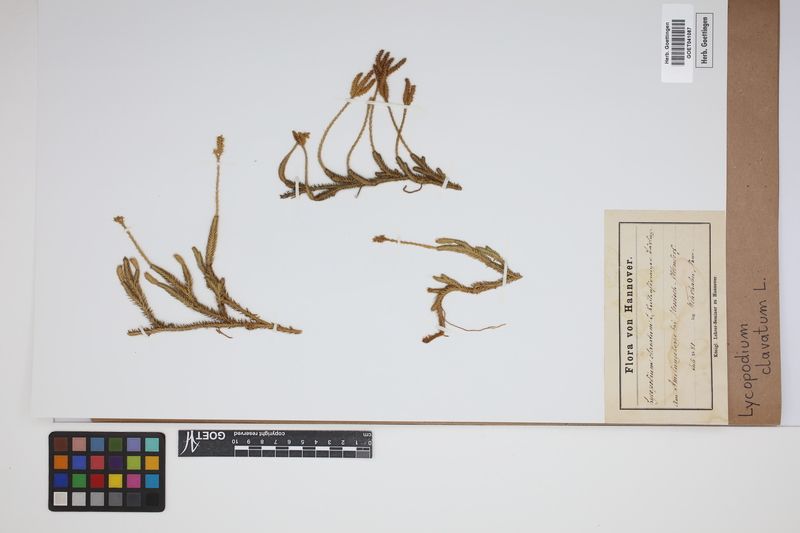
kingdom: Plantae
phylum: Tracheophyta
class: Lycopodiopsida
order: Lycopodiales
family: Lycopodiaceae
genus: Lycopodium
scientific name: Lycopodium clavatum
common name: Stag's-horn clubmoss
